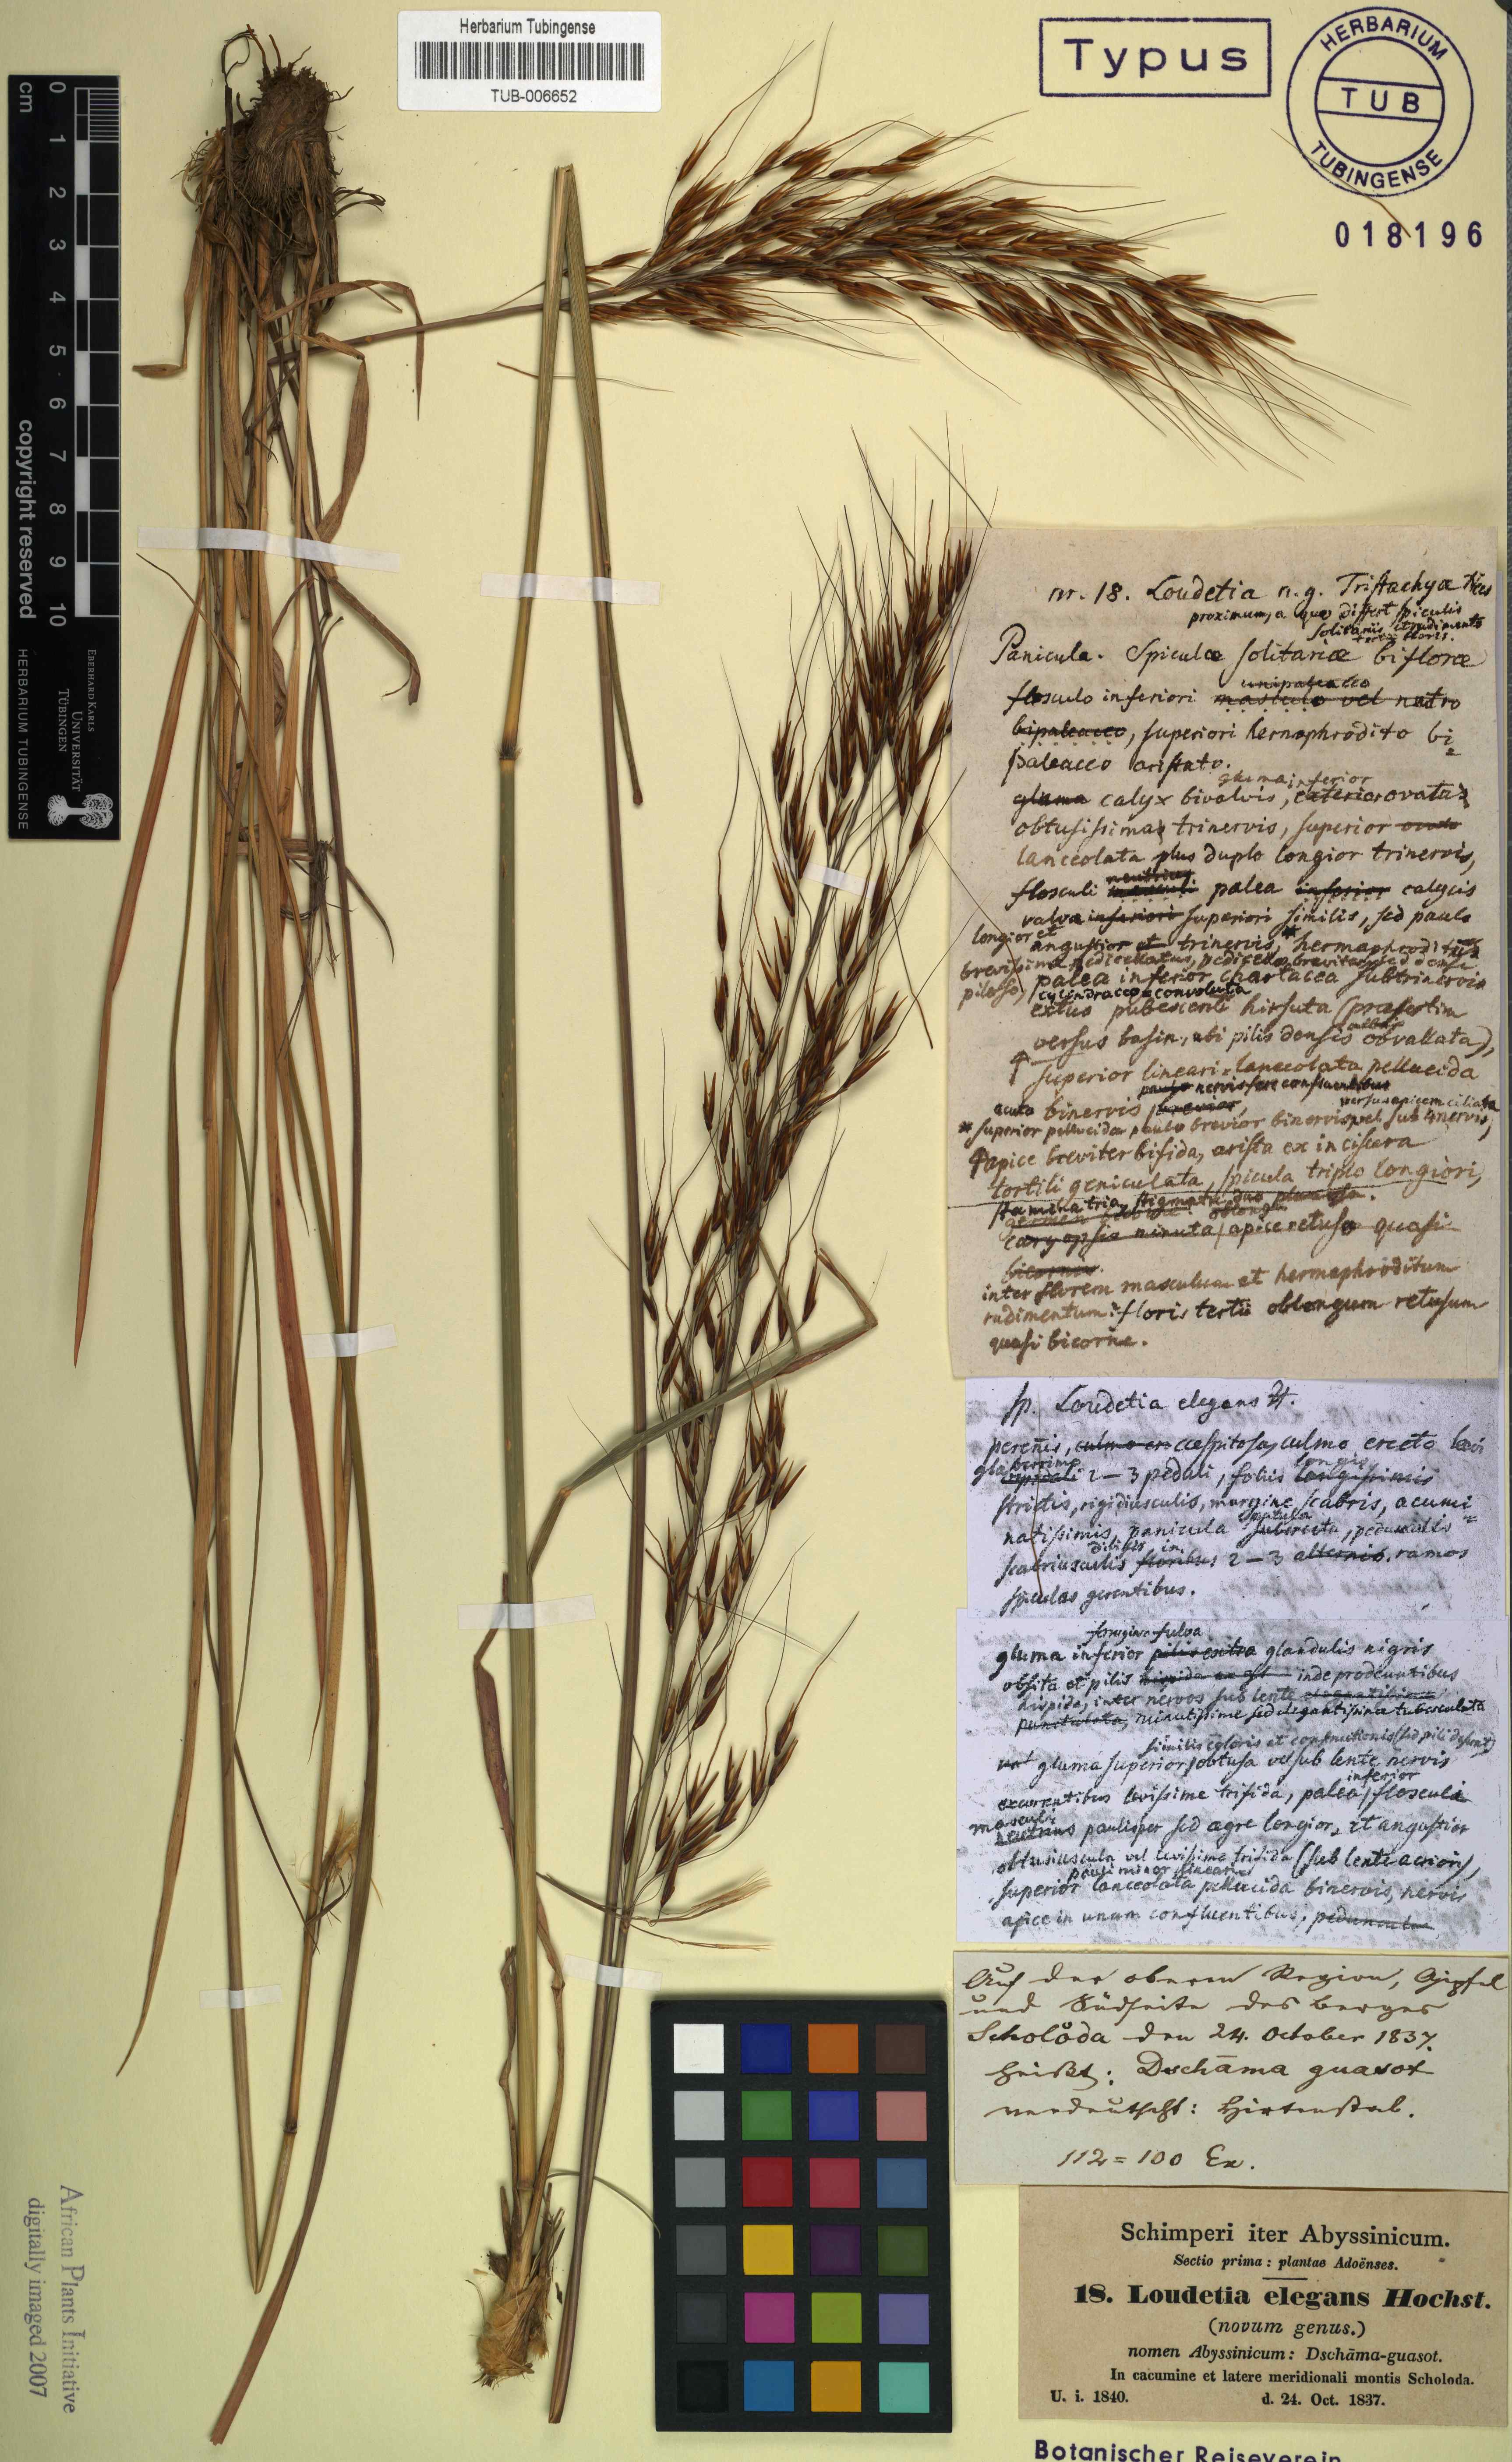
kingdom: Plantae
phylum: Tracheophyta
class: Liliopsida
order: Poales
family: Poaceae
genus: Loudetia
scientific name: Loudetia simplex
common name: Common russet grass
